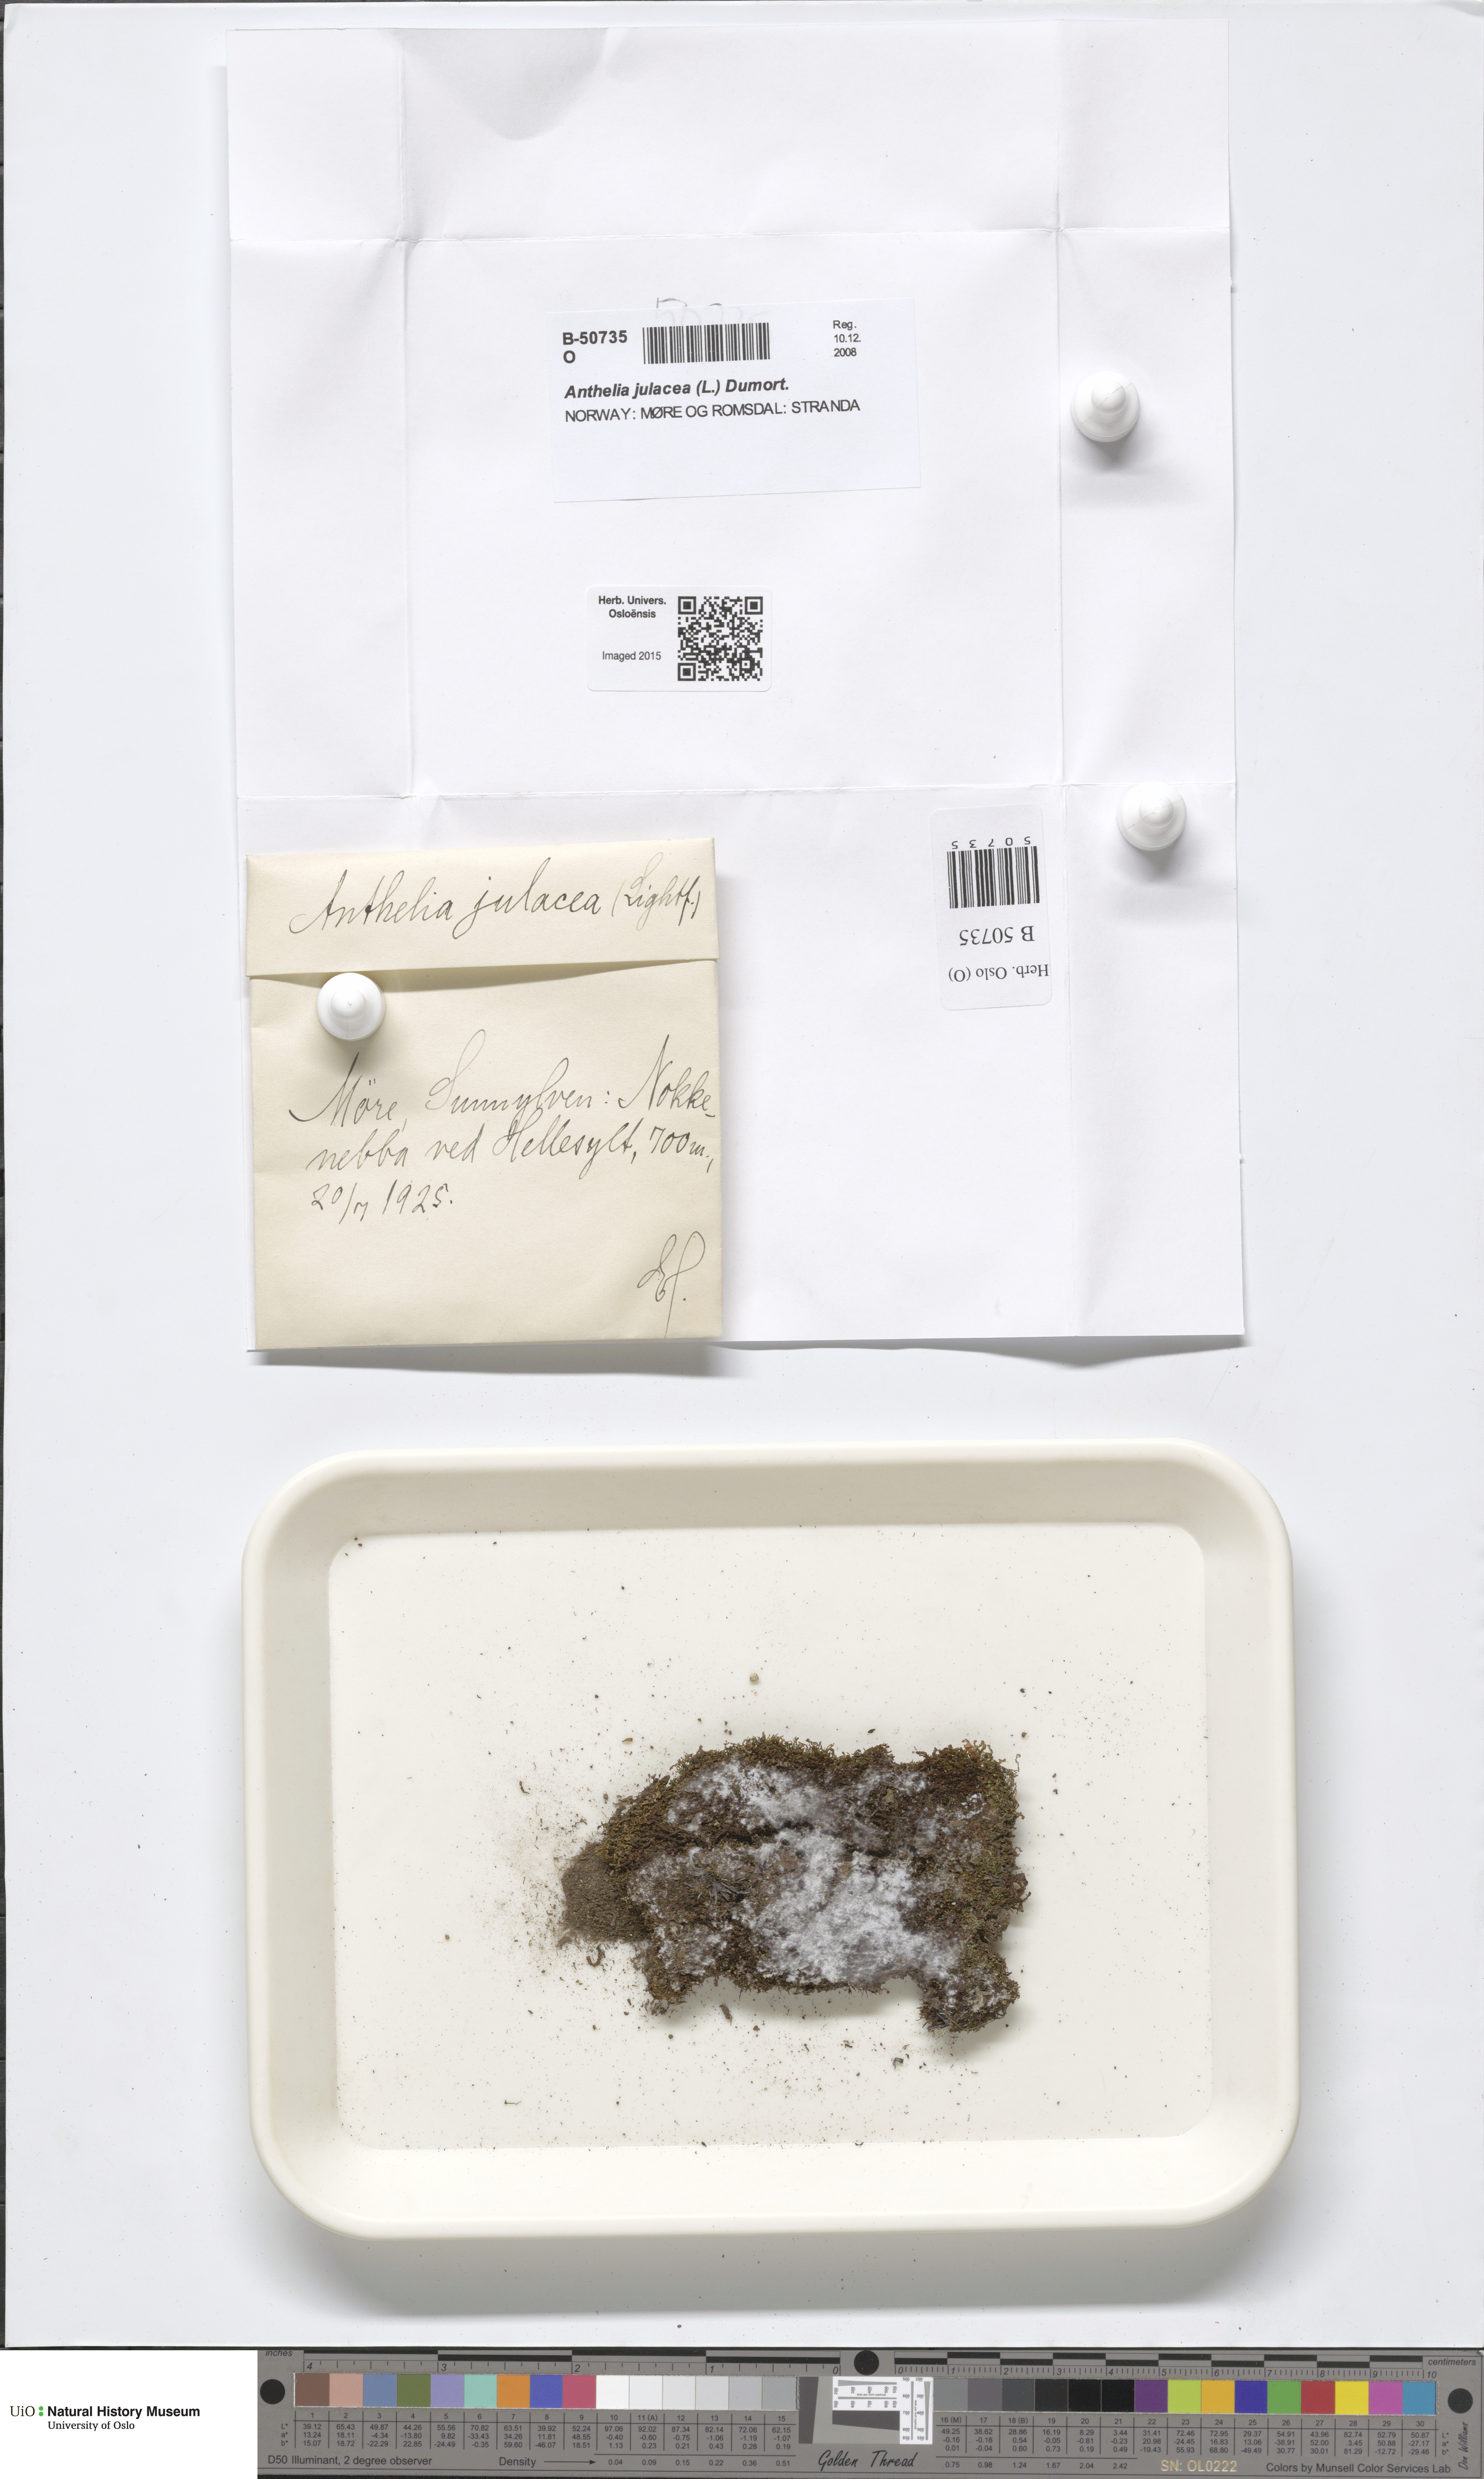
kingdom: Plantae
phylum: Marchantiophyta
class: Jungermanniopsida
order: Jungermanniales
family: Antheliaceae
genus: Anthelia
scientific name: Anthelia julacea
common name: Alpine silverwort
